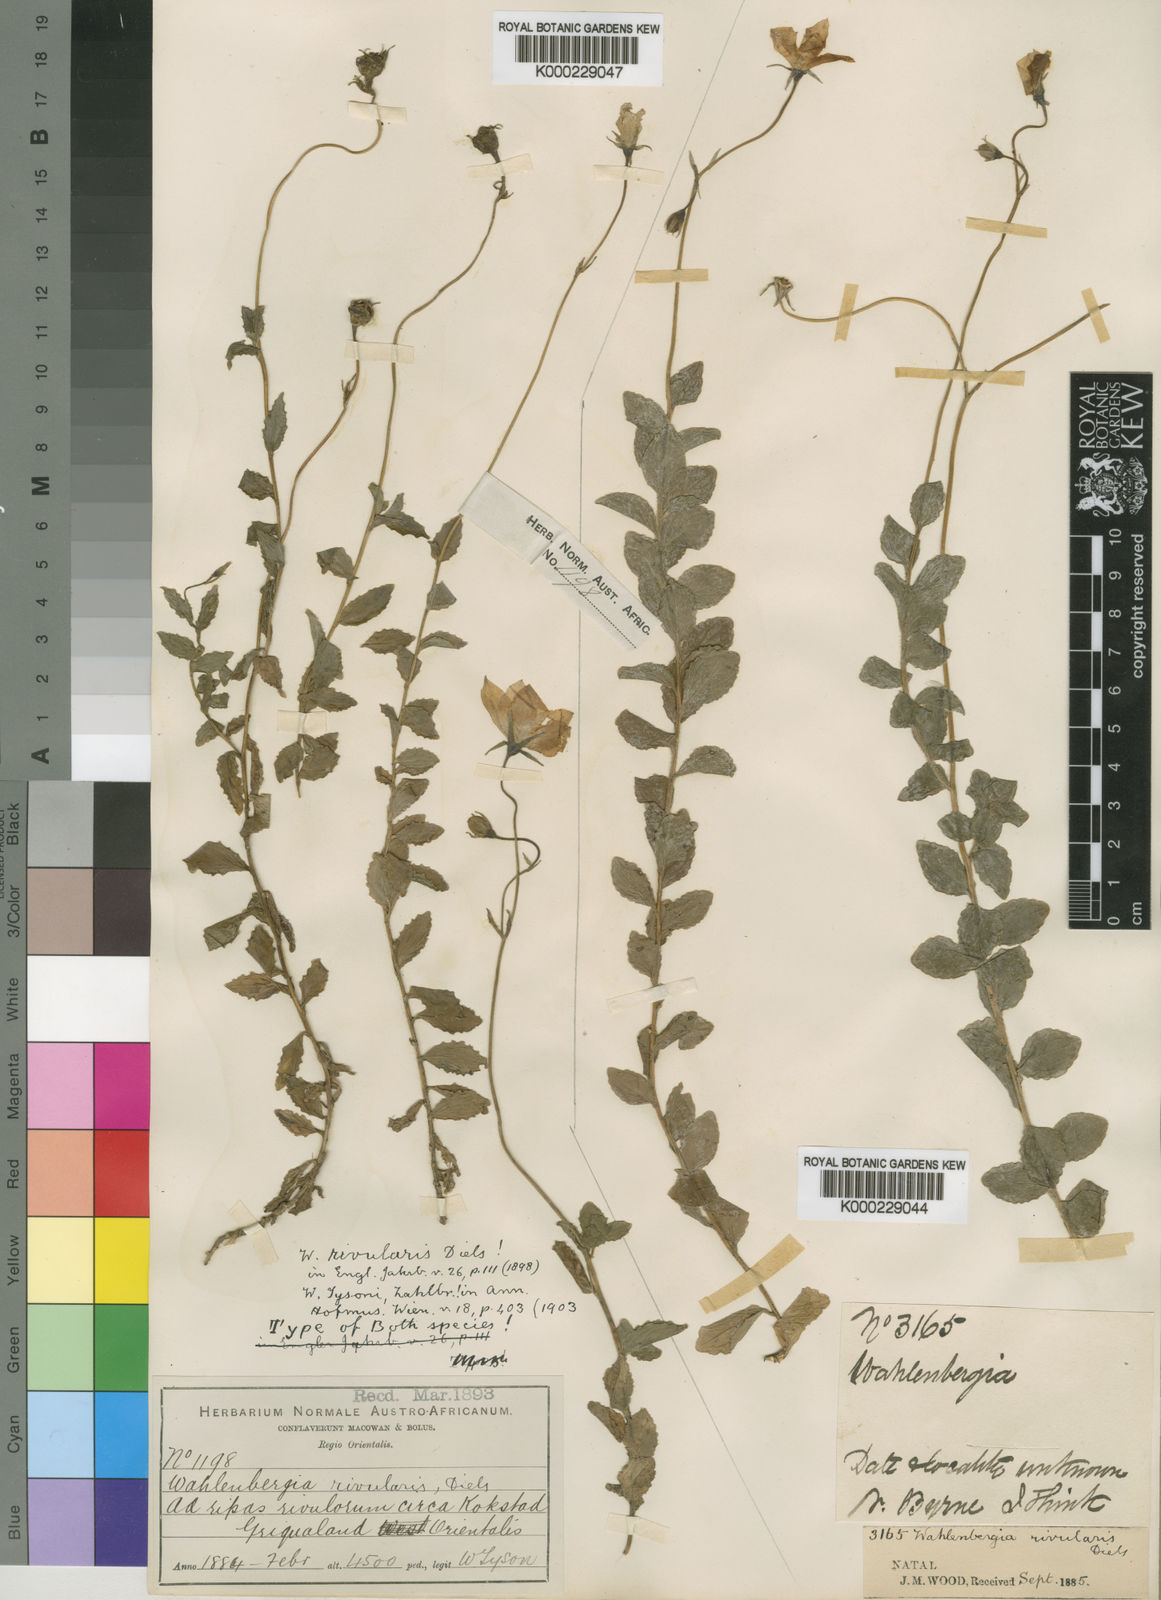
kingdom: Plantae
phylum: Tracheophyta
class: Magnoliopsida
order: Asterales
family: Campanulaceae
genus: Wahlenbergia
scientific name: Wahlenbergia rivularis
